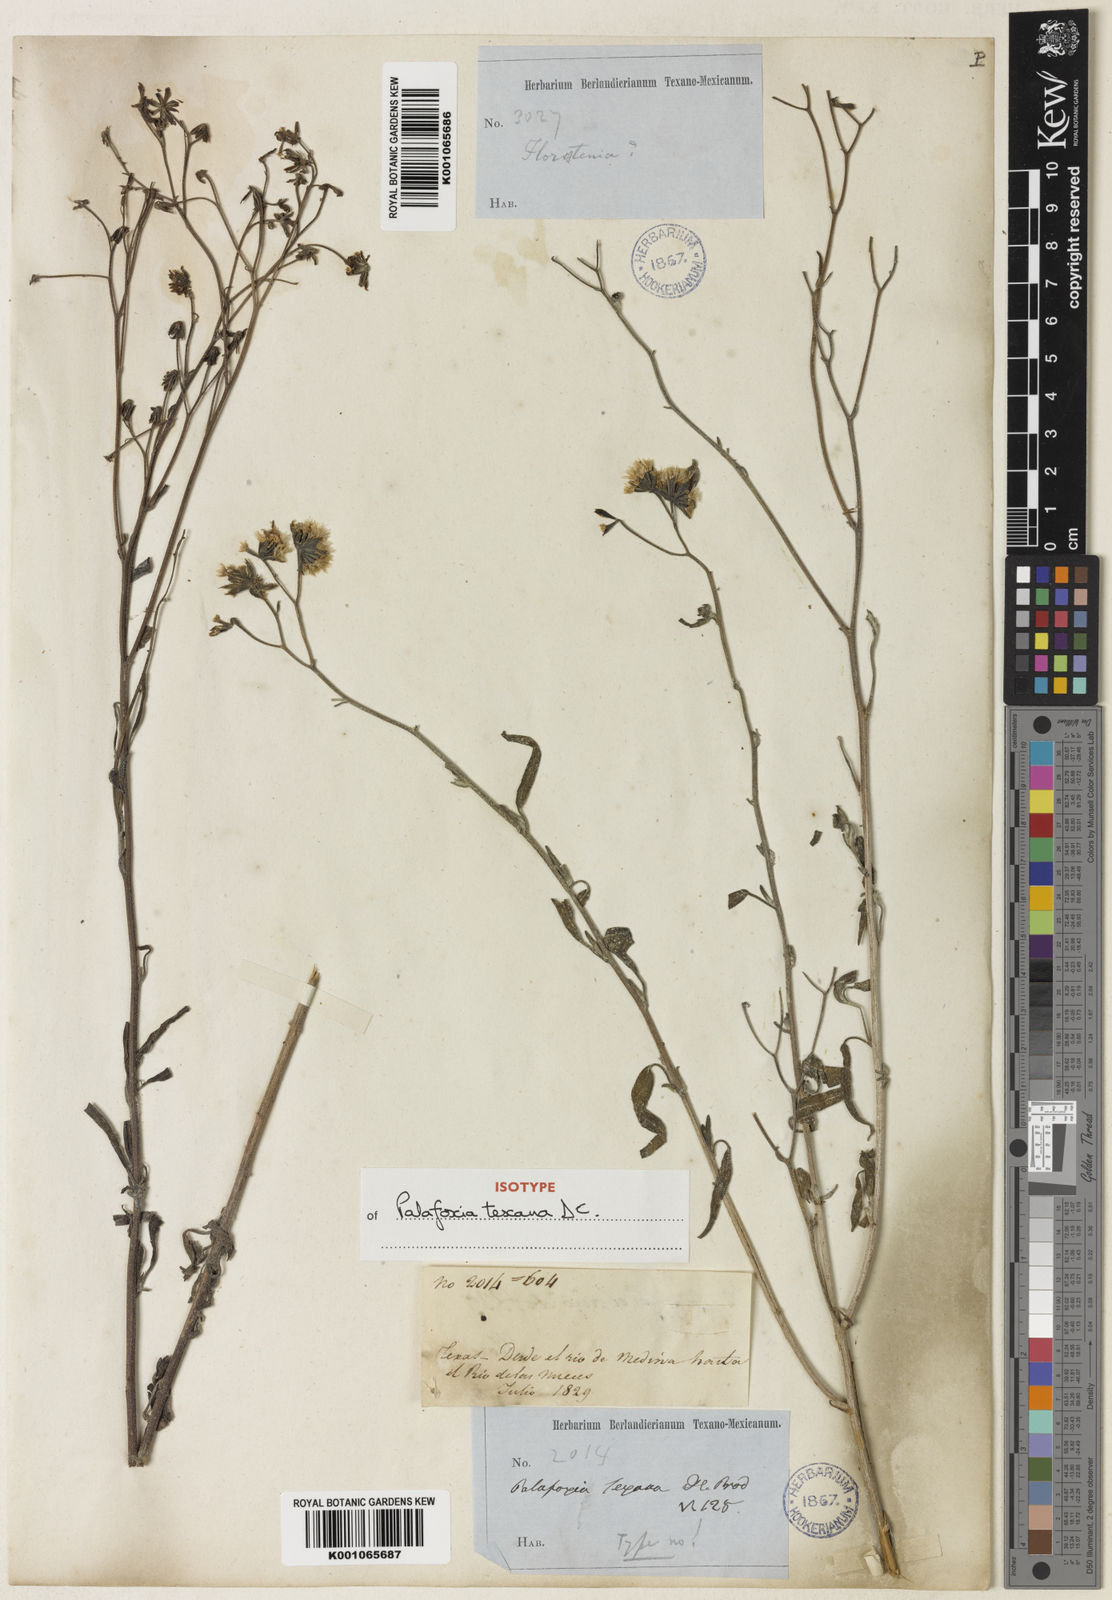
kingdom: Plantae
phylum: Tracheophyta
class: Magnoliopsida
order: Asterales
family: Asteraceae
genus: Palafoxia
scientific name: Palafoxia texana
